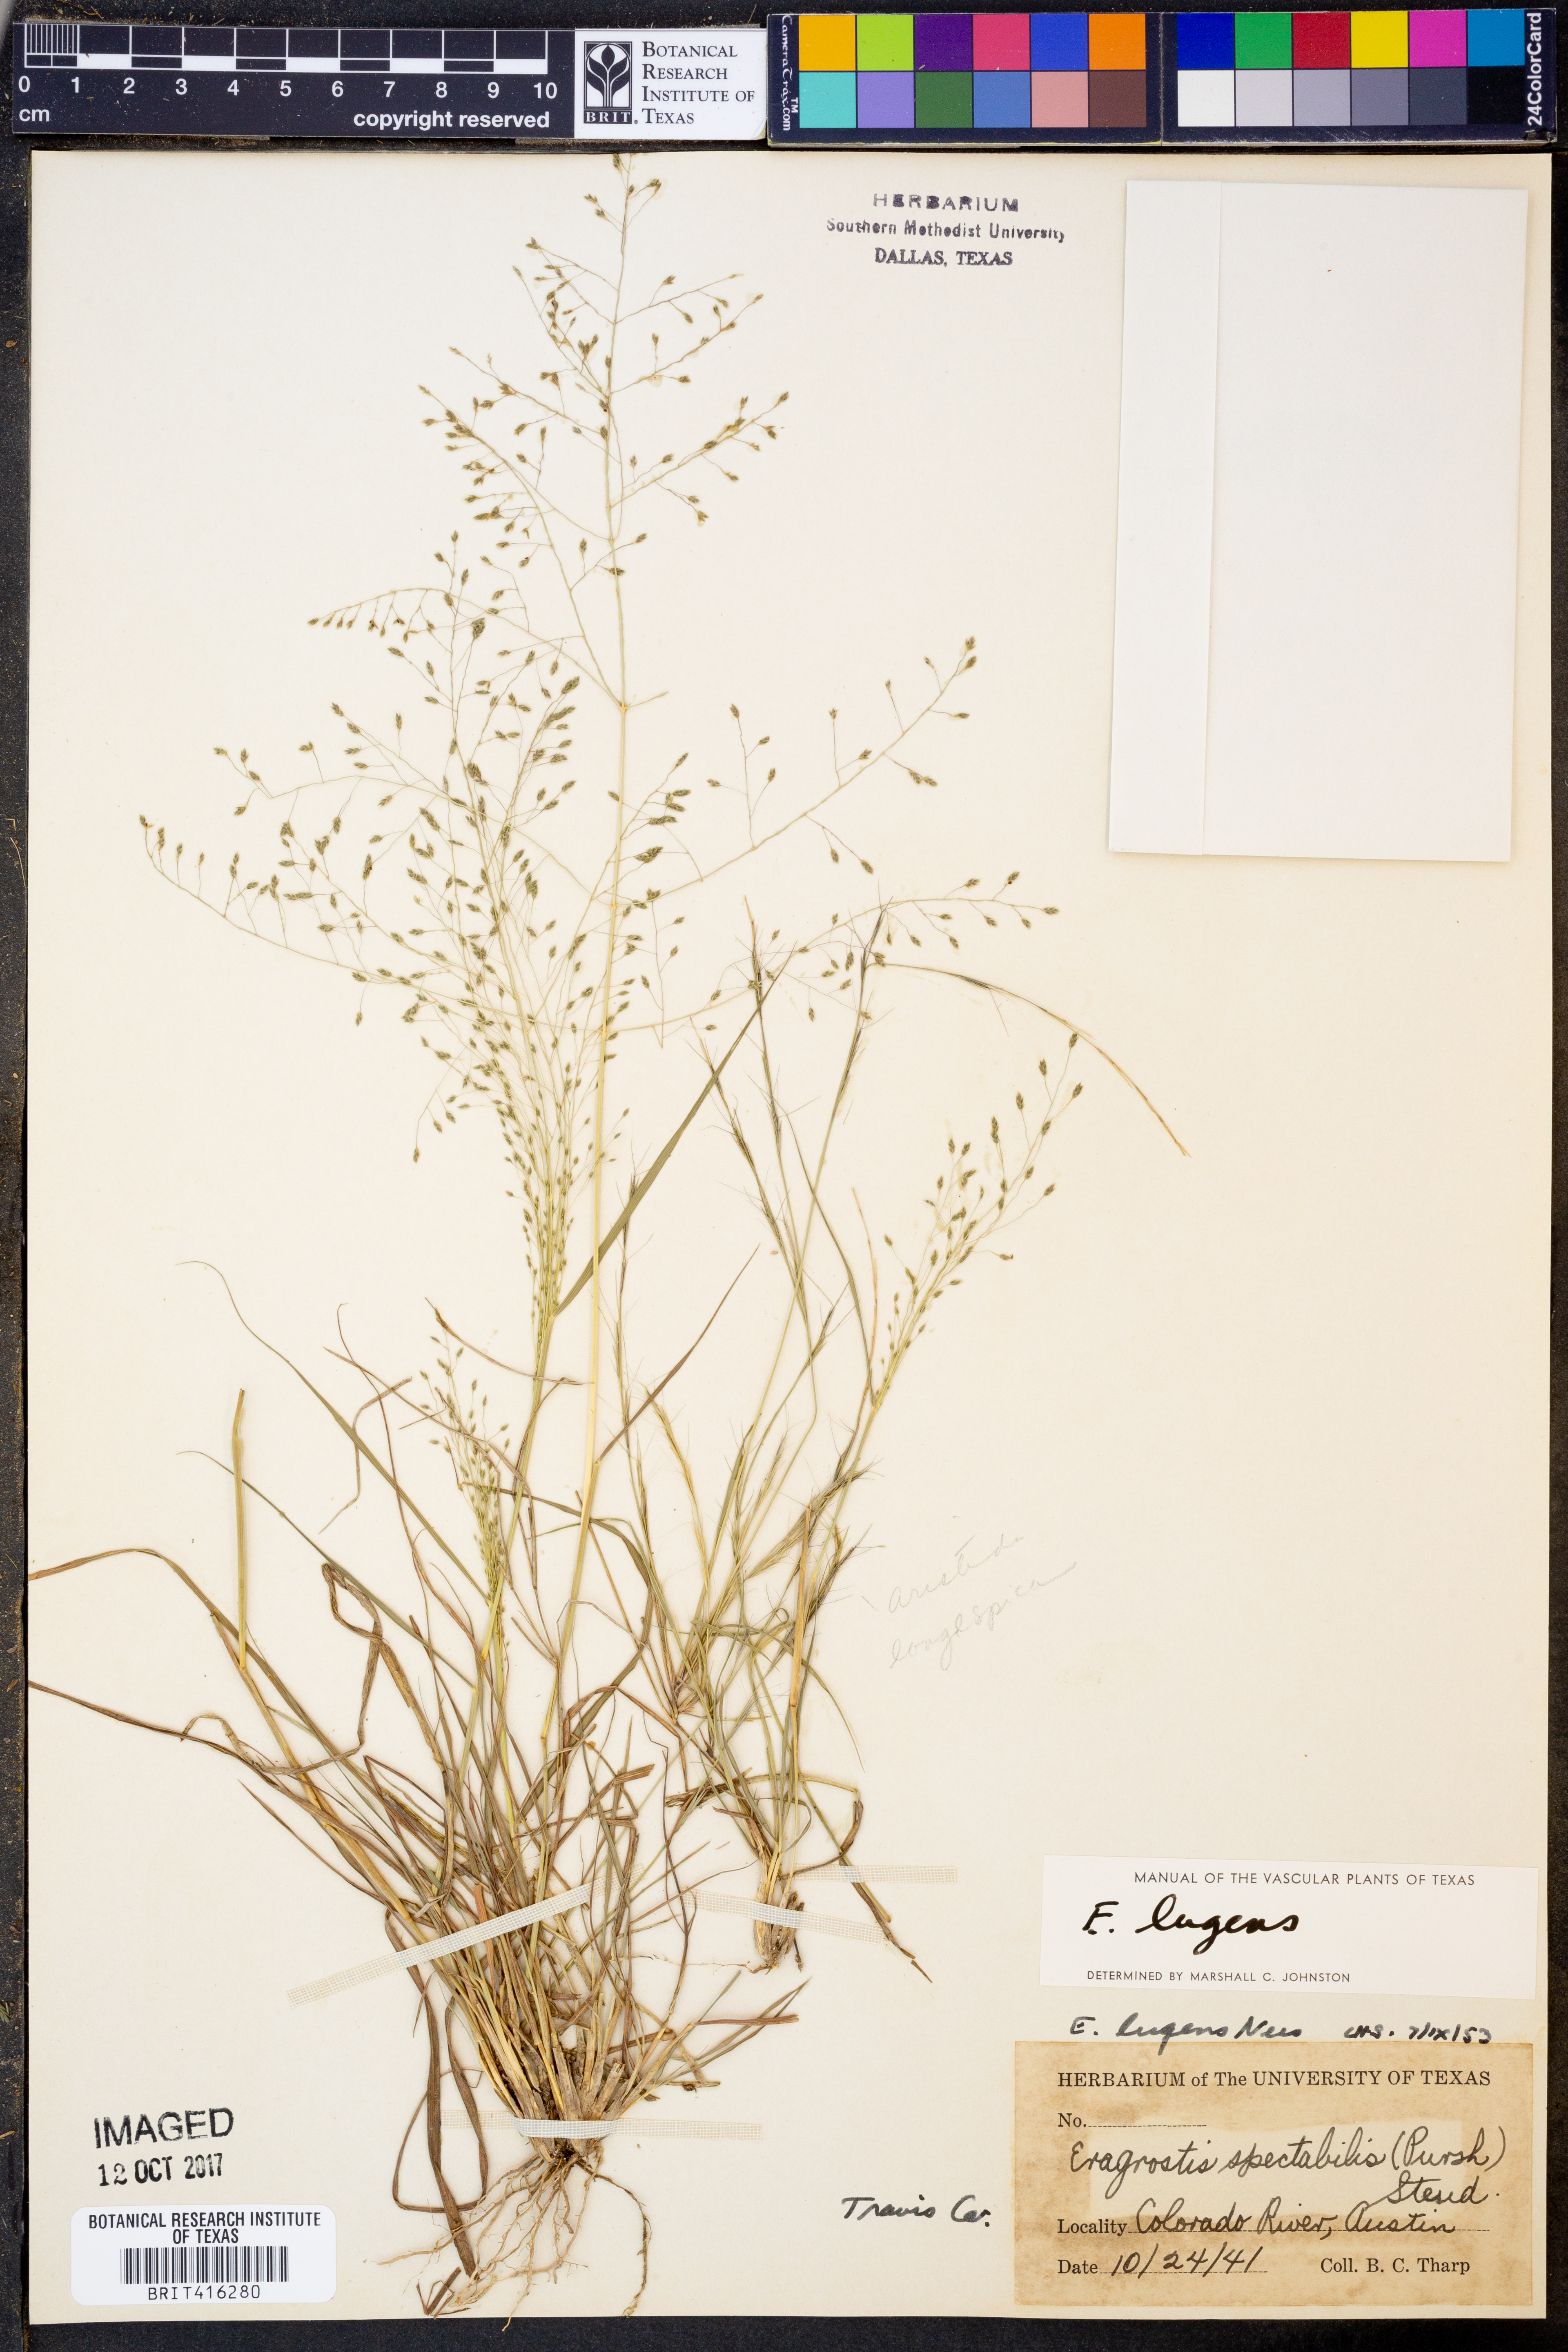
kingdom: Plantae
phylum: Tracheophyta
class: Liliopsida
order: Poales
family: Poaceae
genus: Eragrostis
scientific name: Eragrostis capillaris
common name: Hair-like lovegrass
